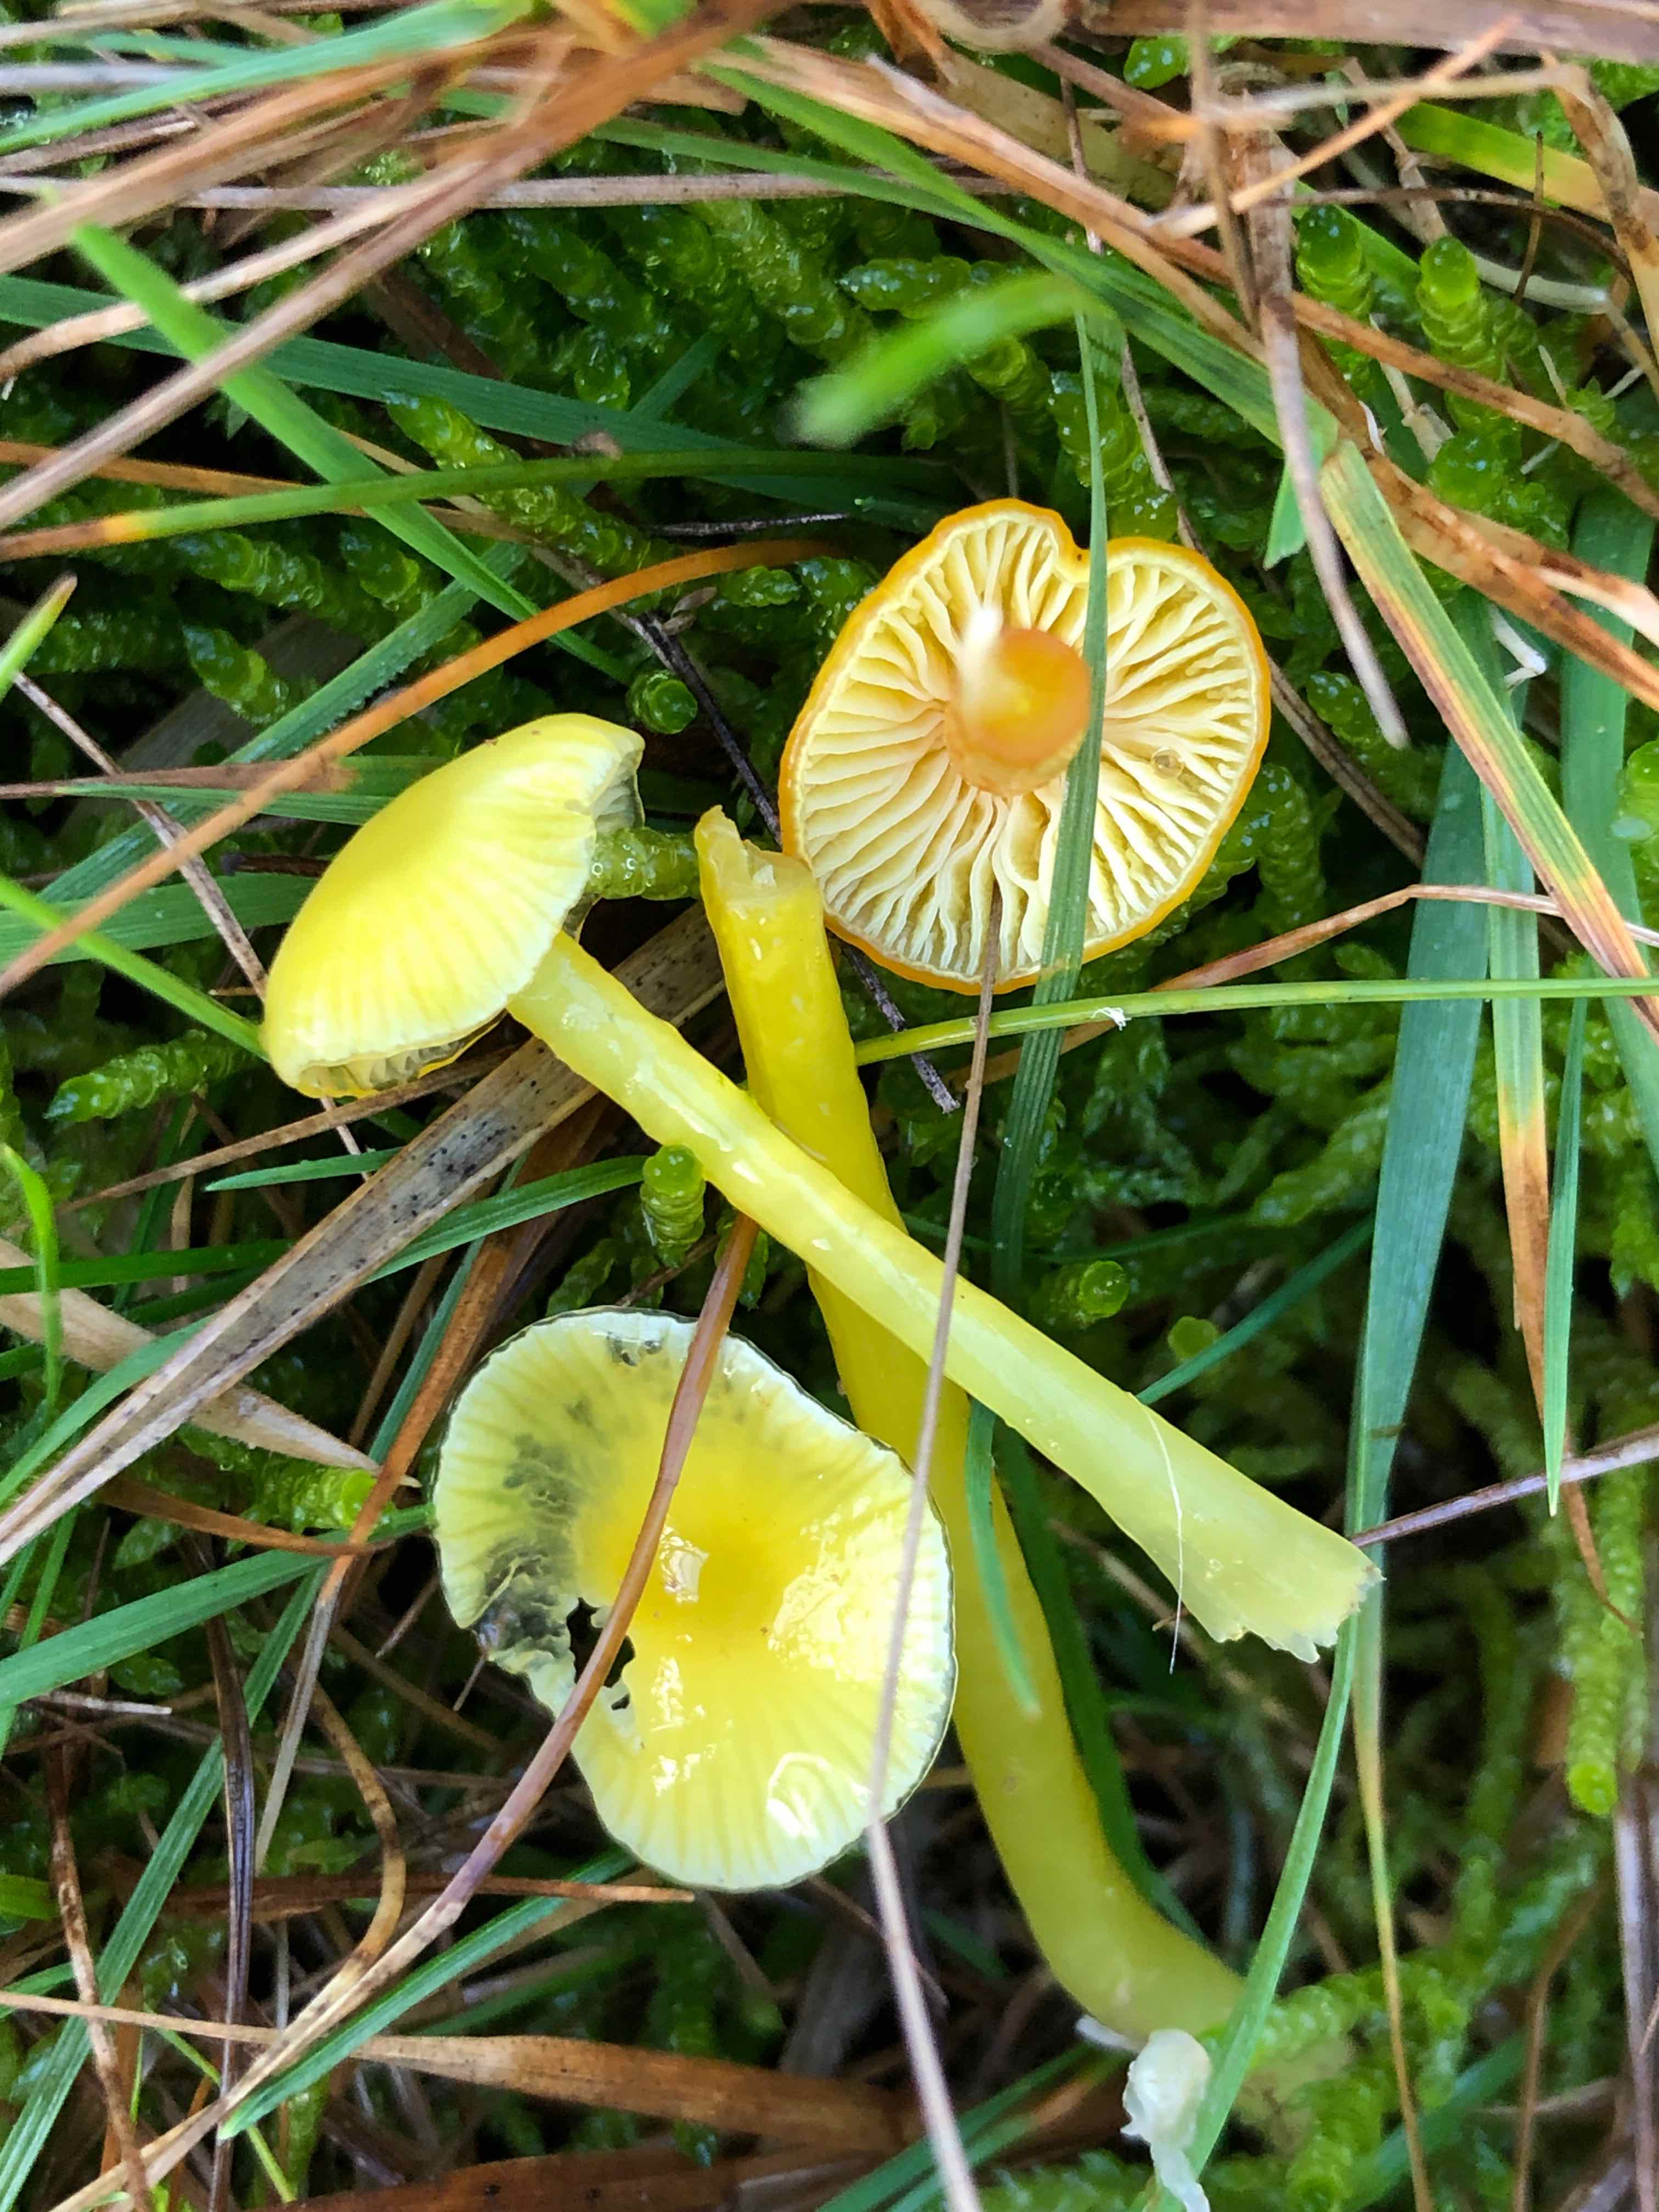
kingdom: Fungi
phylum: Basidiomycota
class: Agaricomycetes
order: Agaricales
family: Hygrophoraceae
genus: Hygrocybe
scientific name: Hygrocybe glutinipes
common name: slimstokket vokshat
